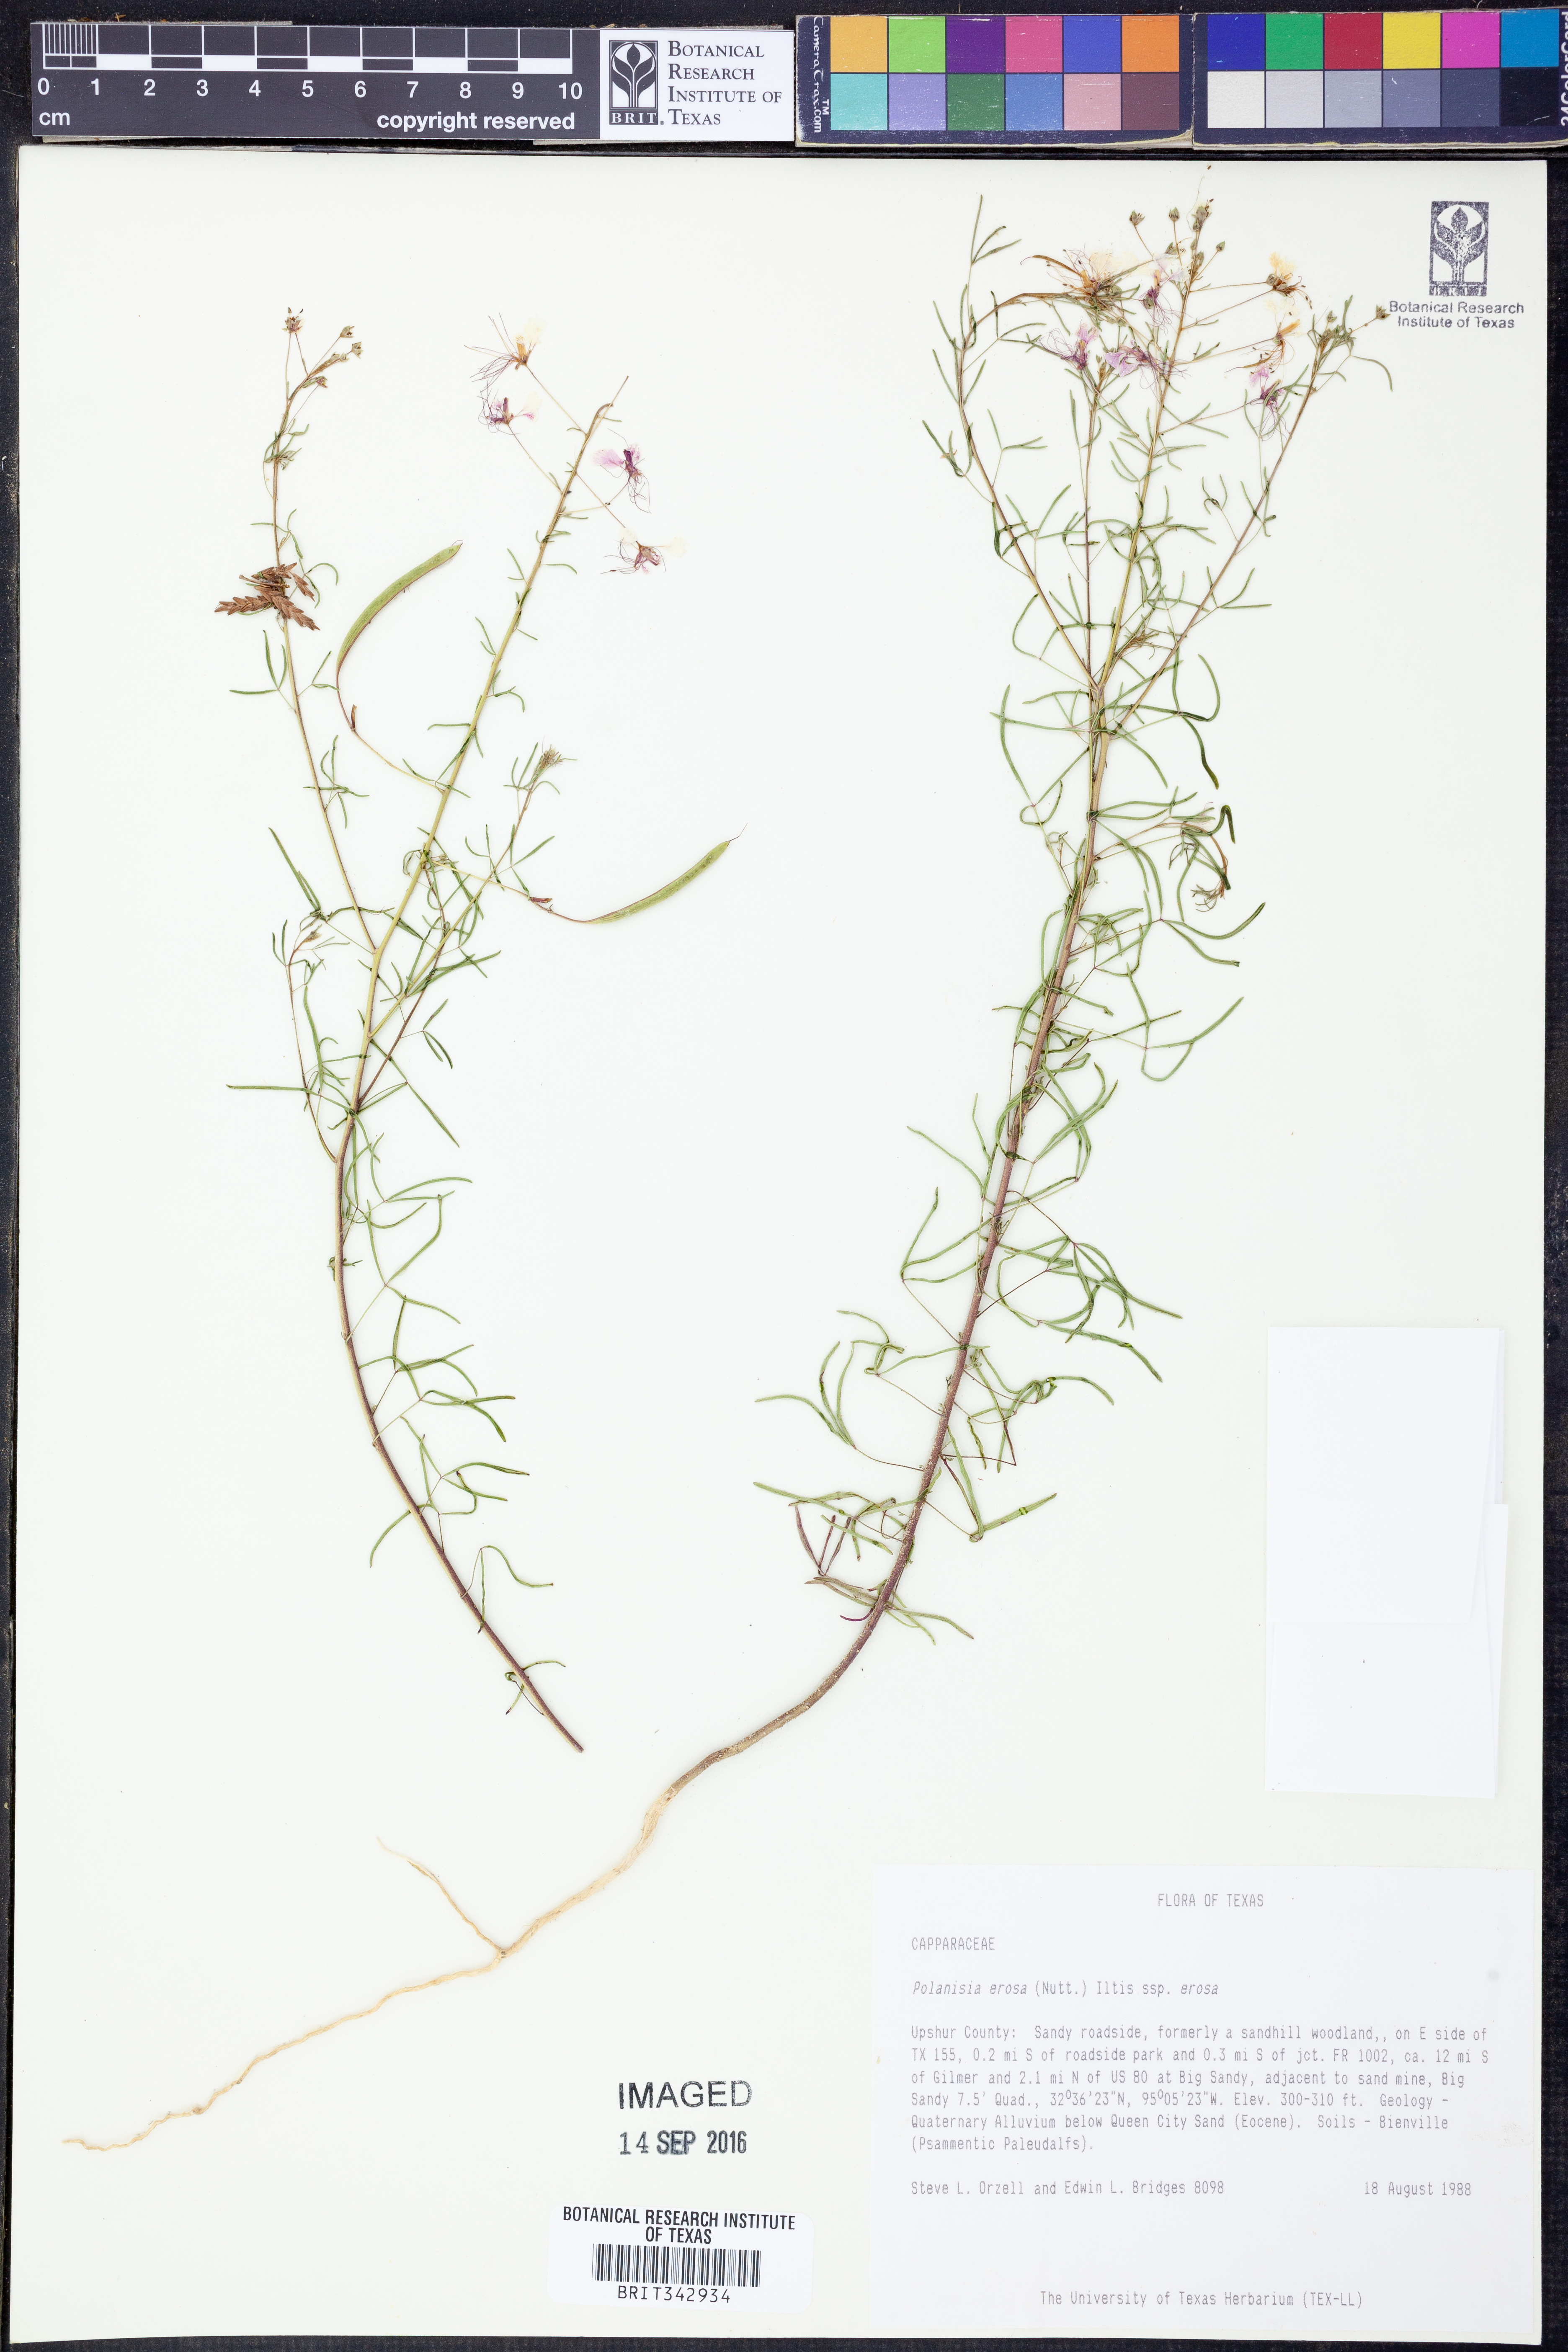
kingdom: Plantae
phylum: Tracheophyta
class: Magnoliopsida
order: Brassicales
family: Cleomaceae
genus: Polanisia
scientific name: Polanisia erosa
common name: Large clammyweed
